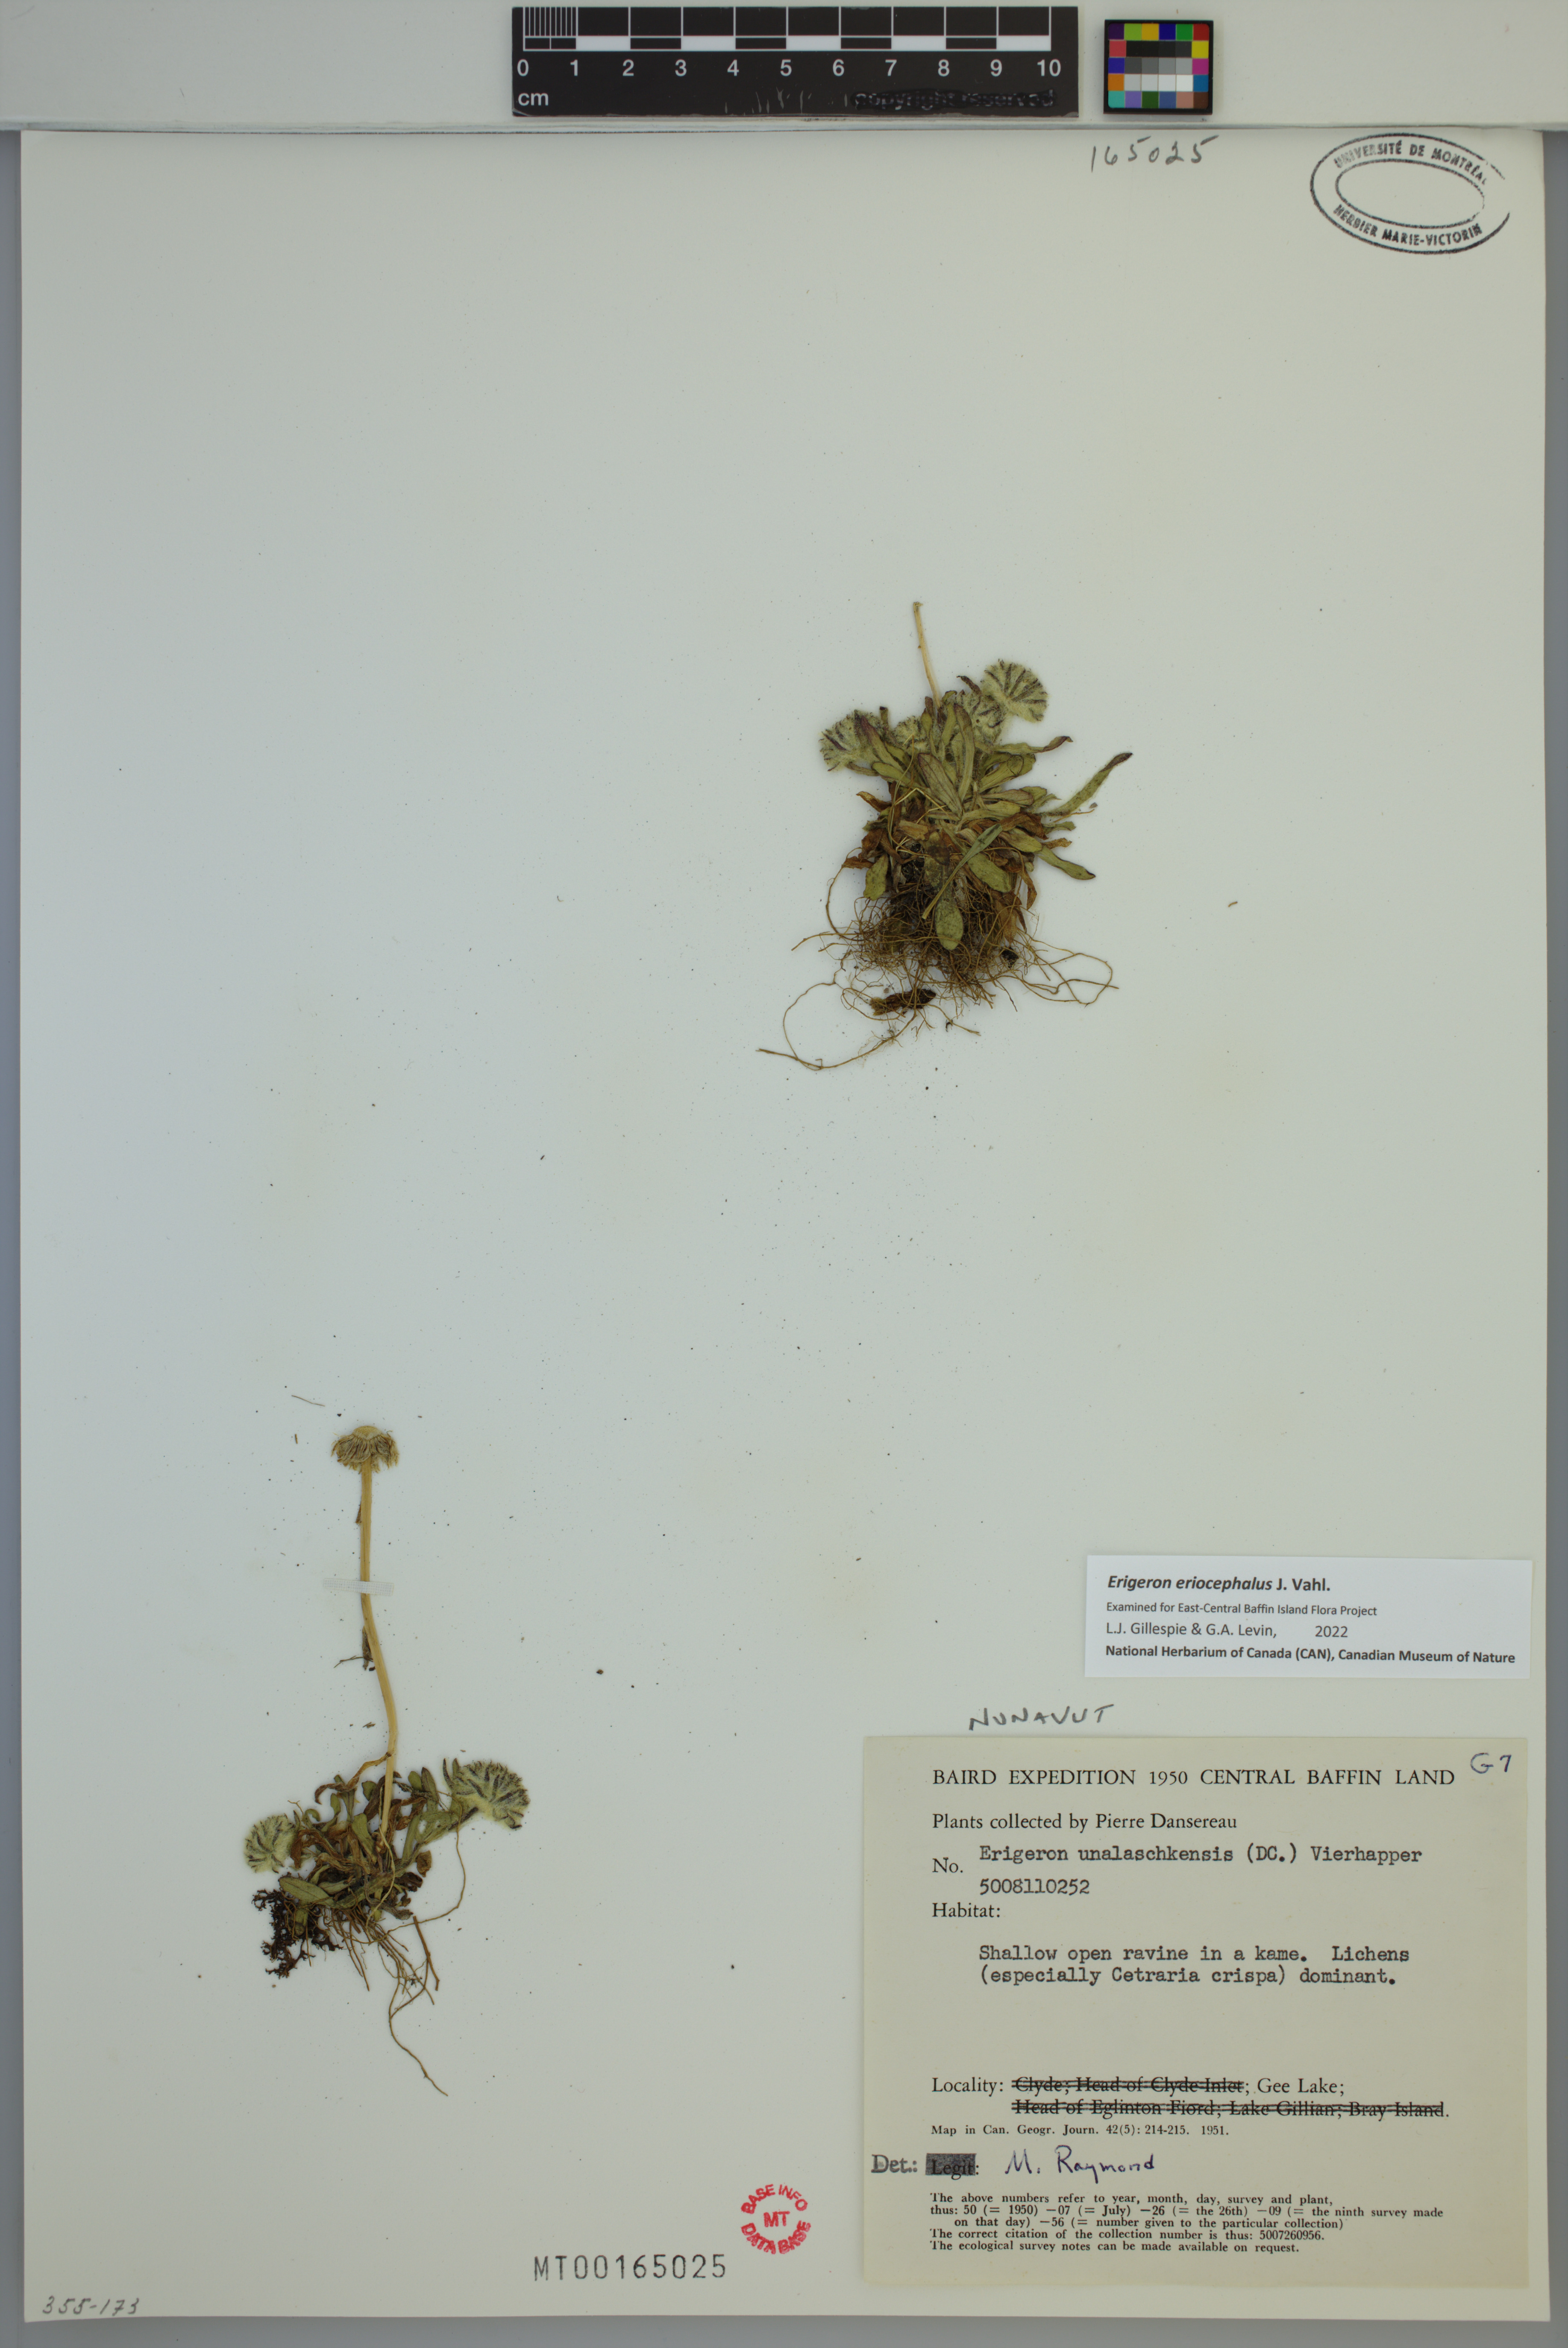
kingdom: Plantae
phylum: Tracheophyta
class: Magnoliopsida
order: Asterales
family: Asteraceae
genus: Erigeron
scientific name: Erigeron eriocephalus
